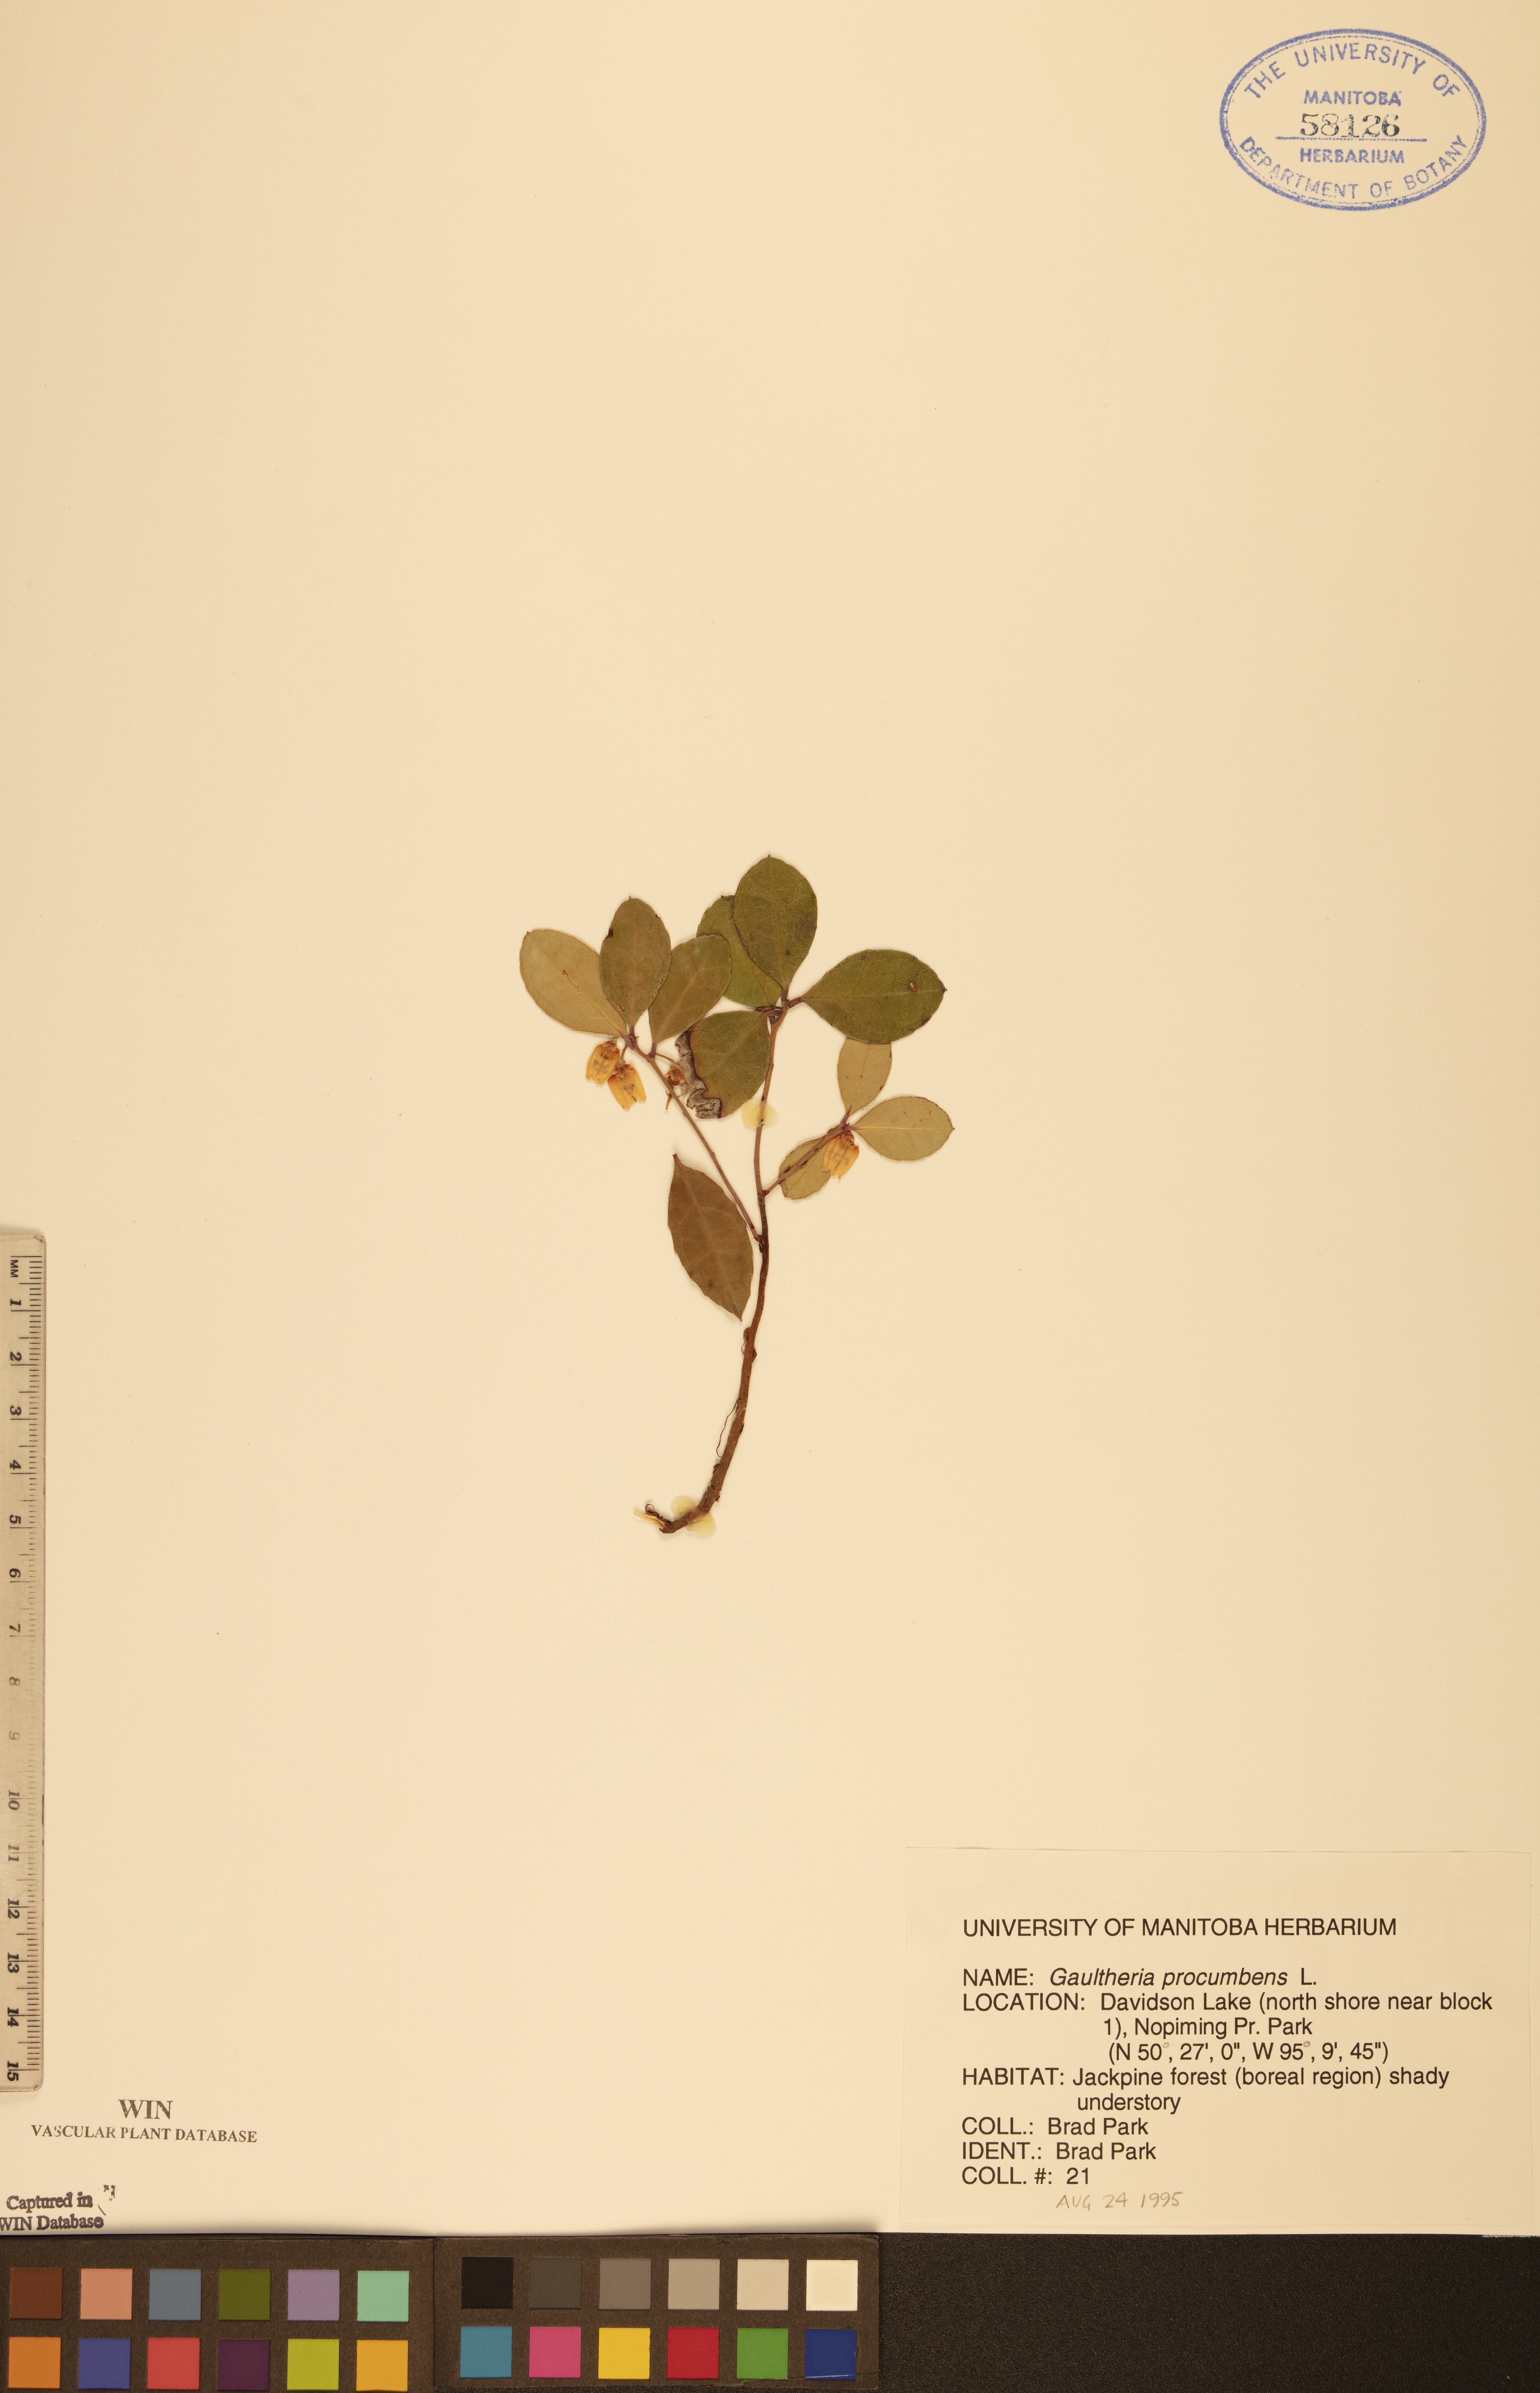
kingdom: Plantae
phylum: Tracheophyta
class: Magnoliopsida
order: Ericales
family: Ericaceae
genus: Gaultheria
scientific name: Gaultheria procumbens
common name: Checkerberry
